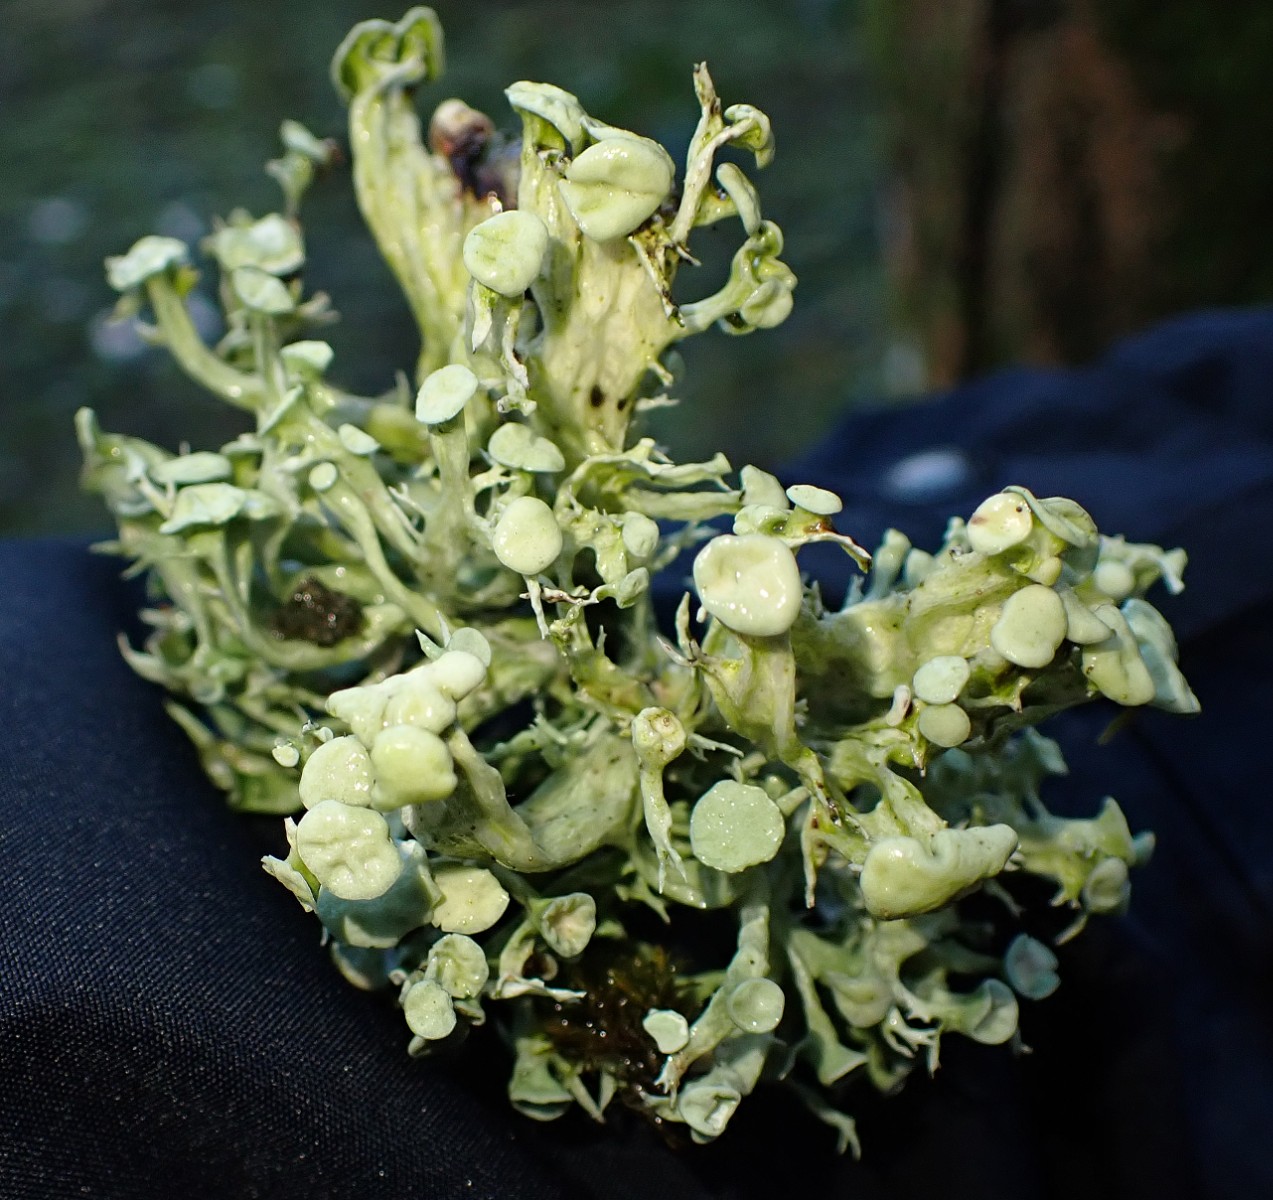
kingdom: Fungi
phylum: Ascomycota
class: Lecanoromycetes
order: Lecanorales
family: Ramalinaceae
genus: Ramalina
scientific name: Ramalina fastigiata
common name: tue-grenlav
